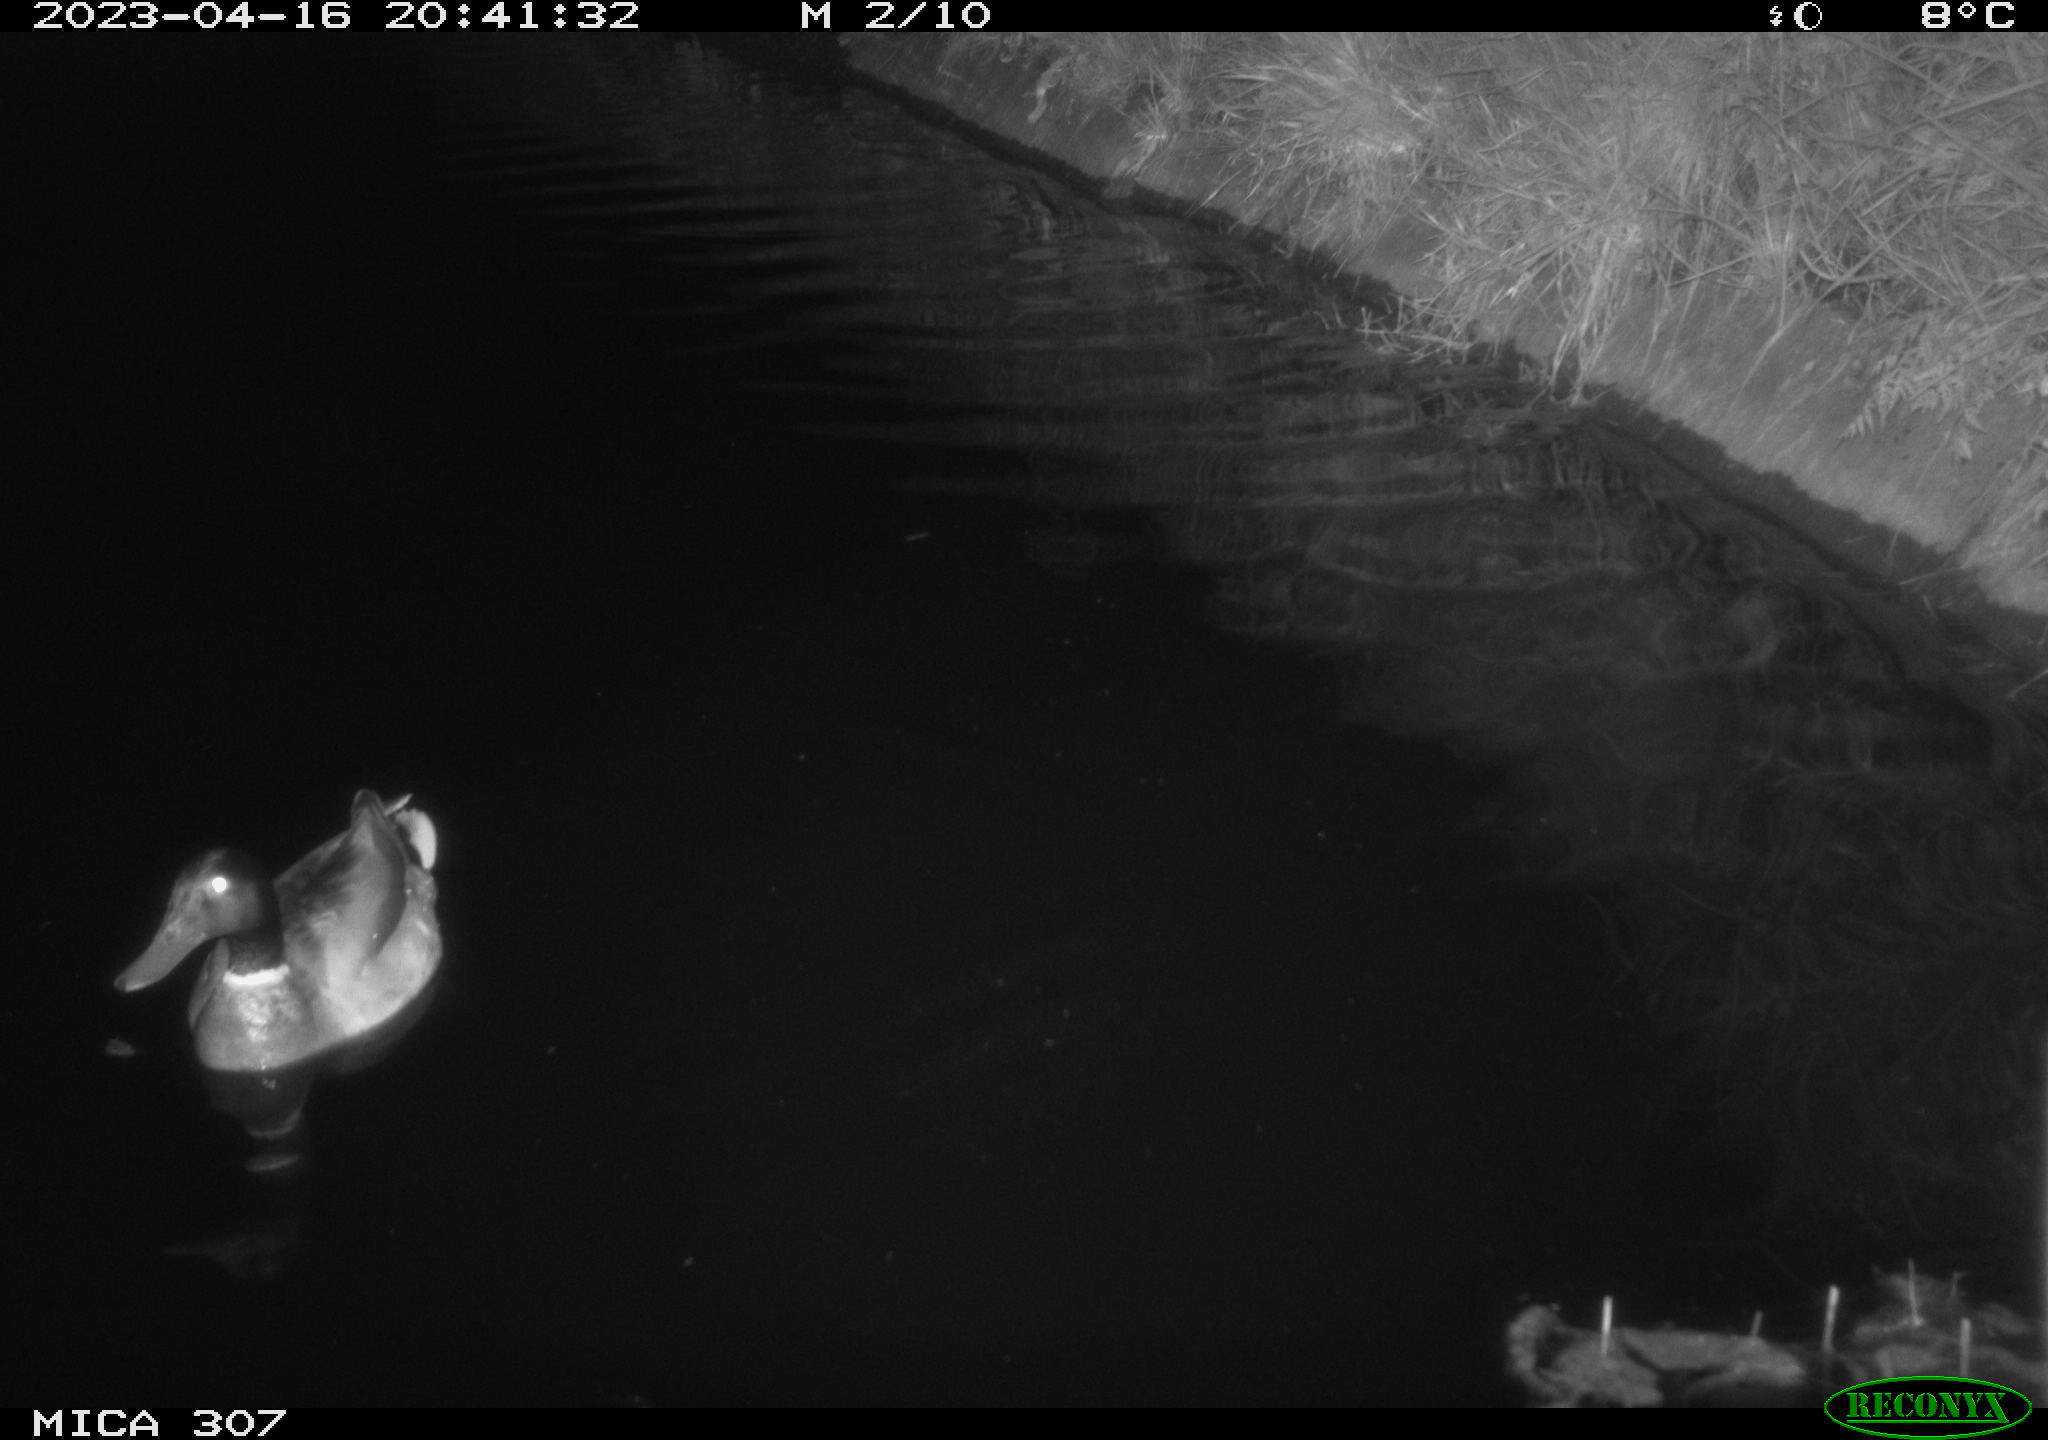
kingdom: Animalia
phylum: Chordata
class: Aves
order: Anseriformes
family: Anatidae
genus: Anas
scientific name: Anas
